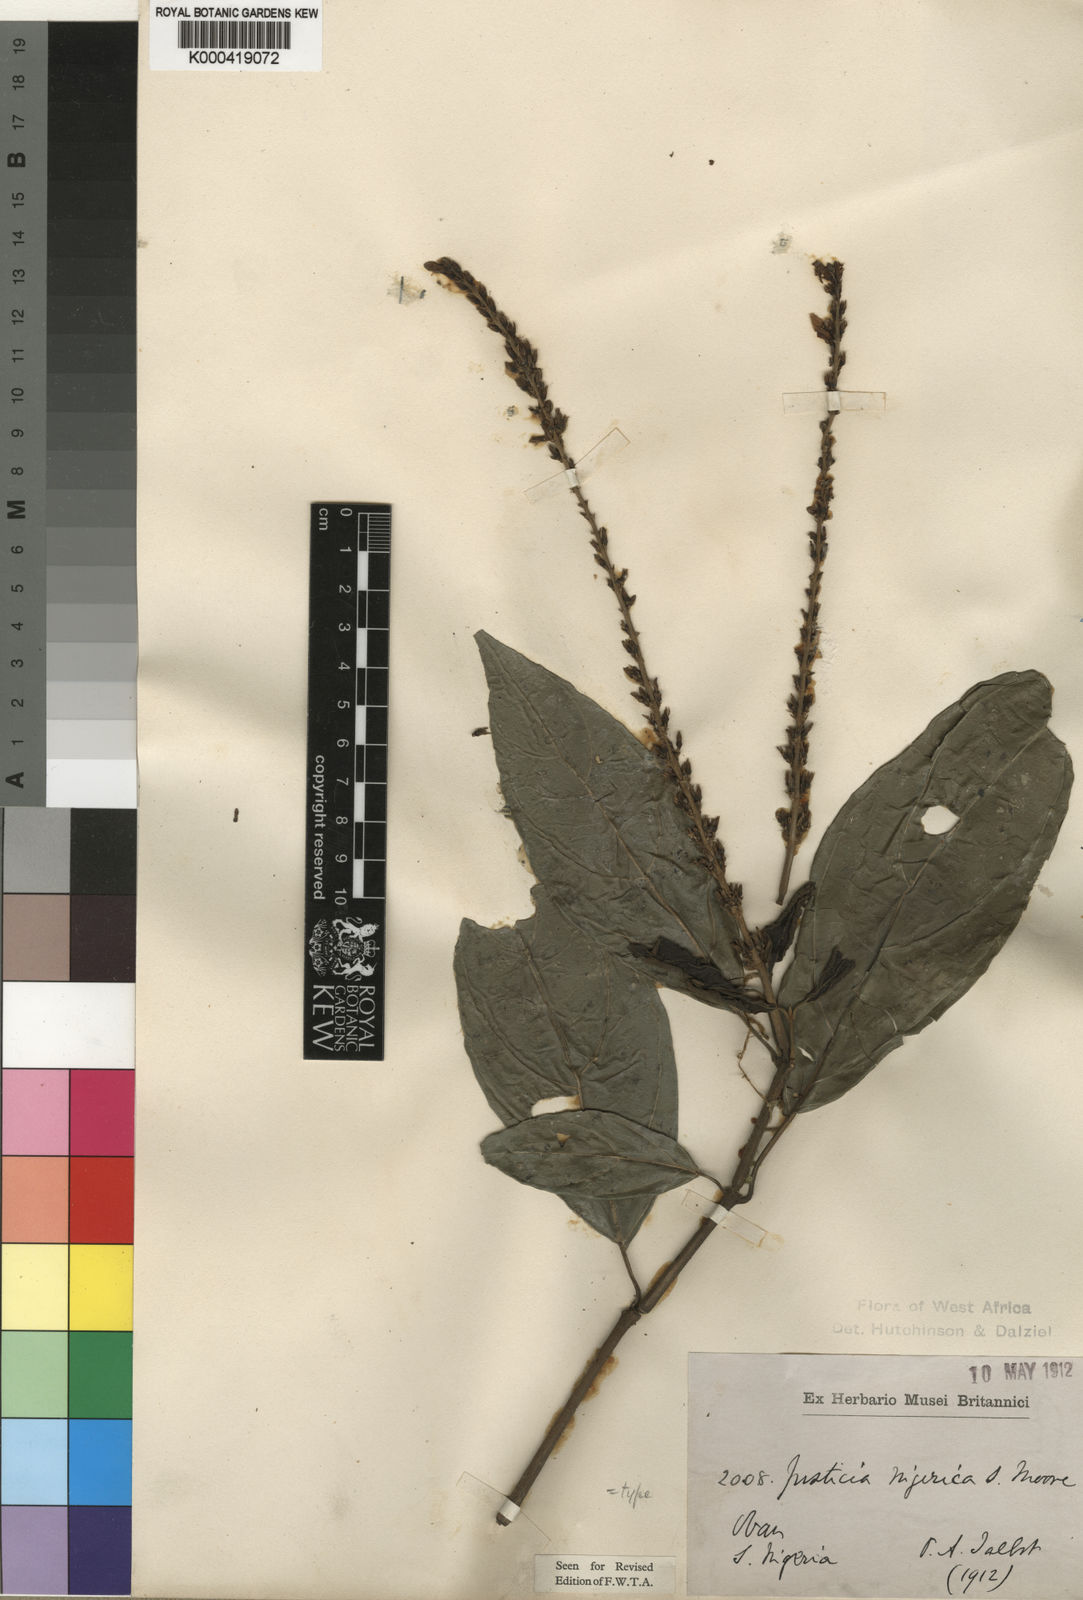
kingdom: Plantae
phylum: Tracheophyta
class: Magnoliopsida
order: Lamiales
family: Acanthaceae
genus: Justicia
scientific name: Justicia nigerica
